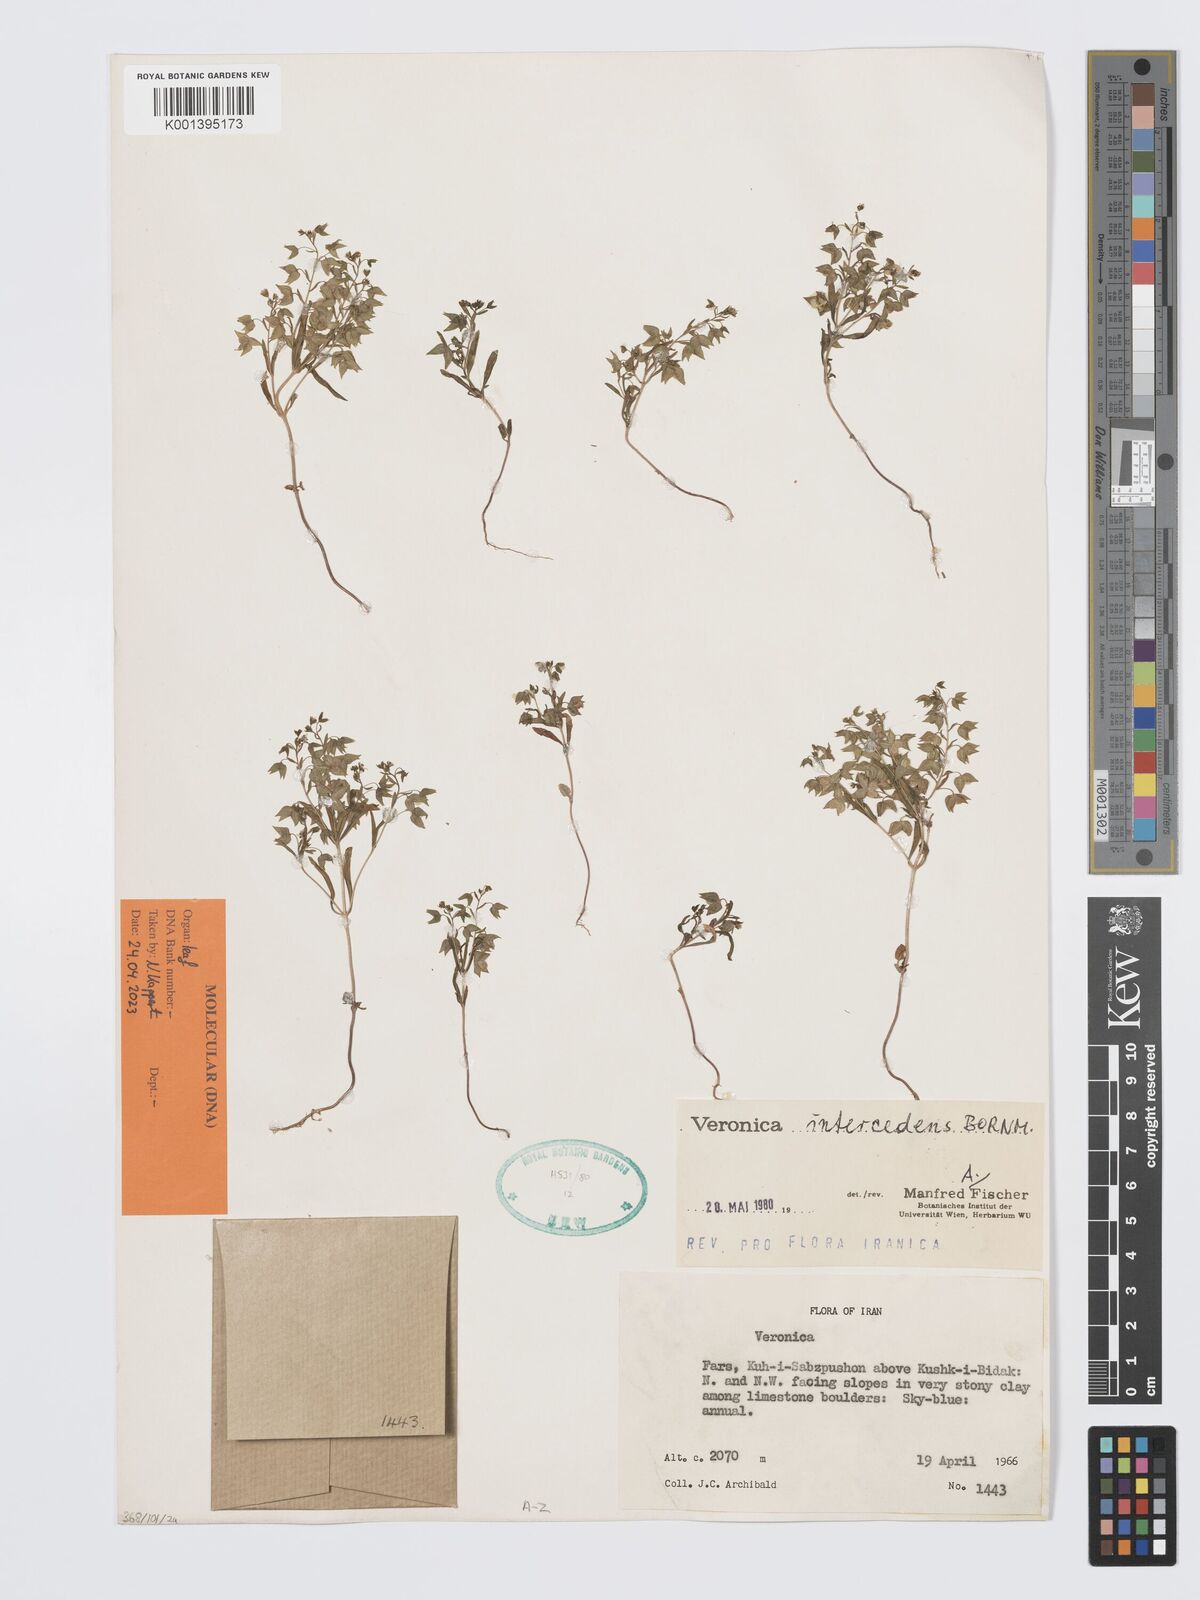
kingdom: Plantae
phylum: Tracheophyta
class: Magnoliopsida
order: Lamiales
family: Plantaginaceae
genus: Veronica
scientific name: Veronica intercedens
